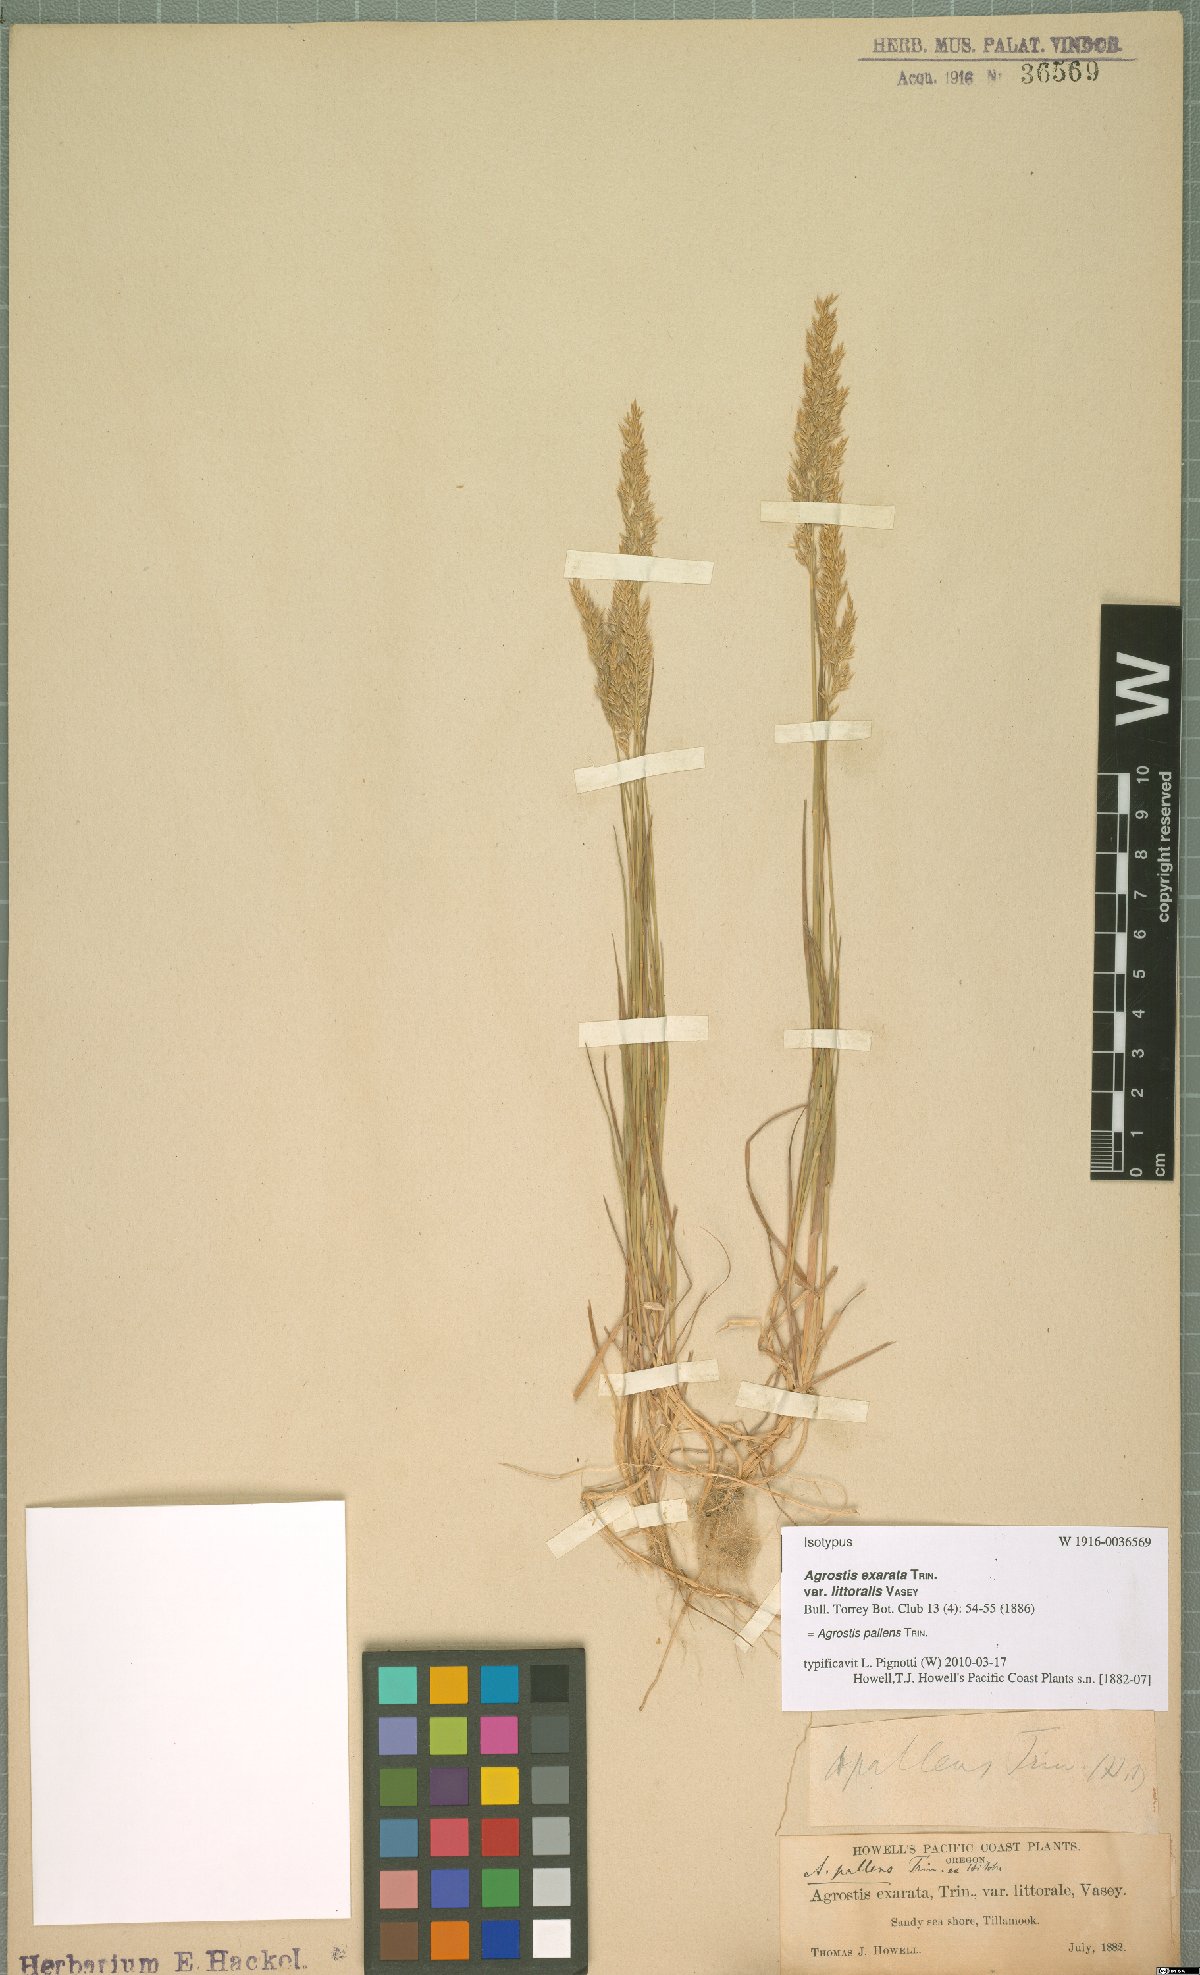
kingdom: Plantae
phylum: Tracheophyta
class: Liliopsida
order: Poales
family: Poaceae
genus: Agrostis
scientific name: Agrostis pallens
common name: Dune bent
